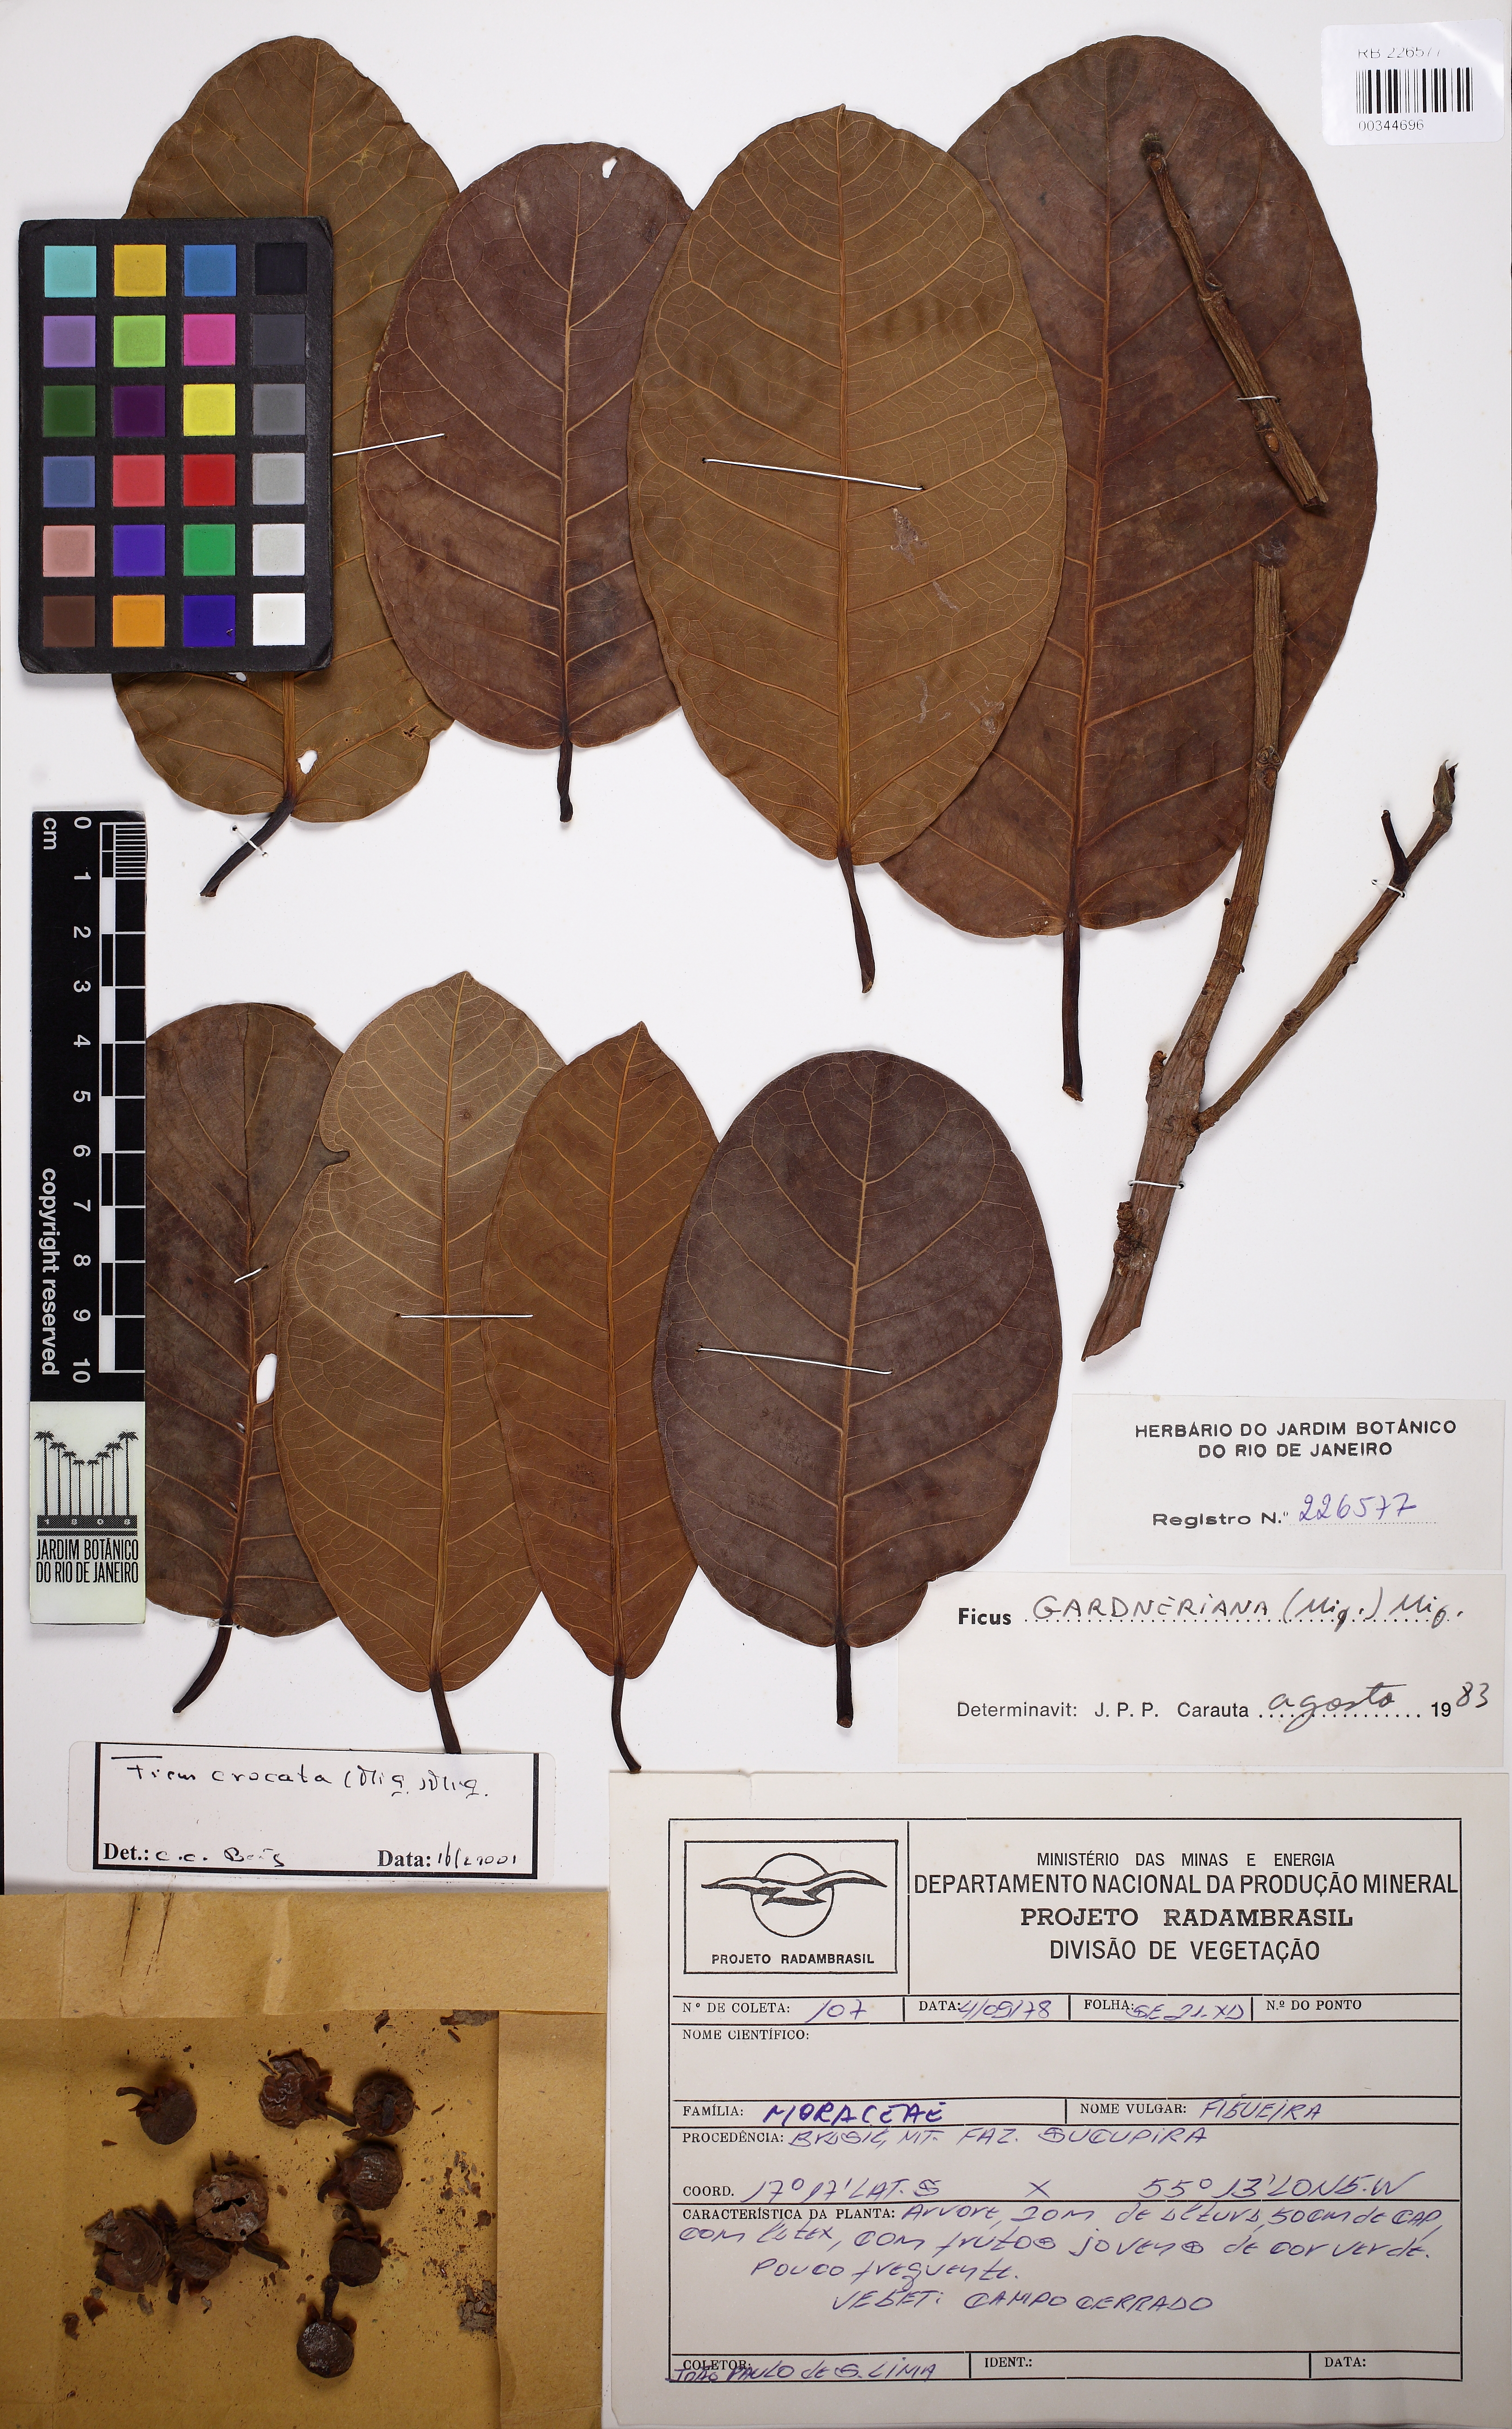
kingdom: Plantae
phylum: Tracheophyta
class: Magnoliopsida
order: Rosales
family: Moraceae
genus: Ficus
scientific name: Ficus crocata
